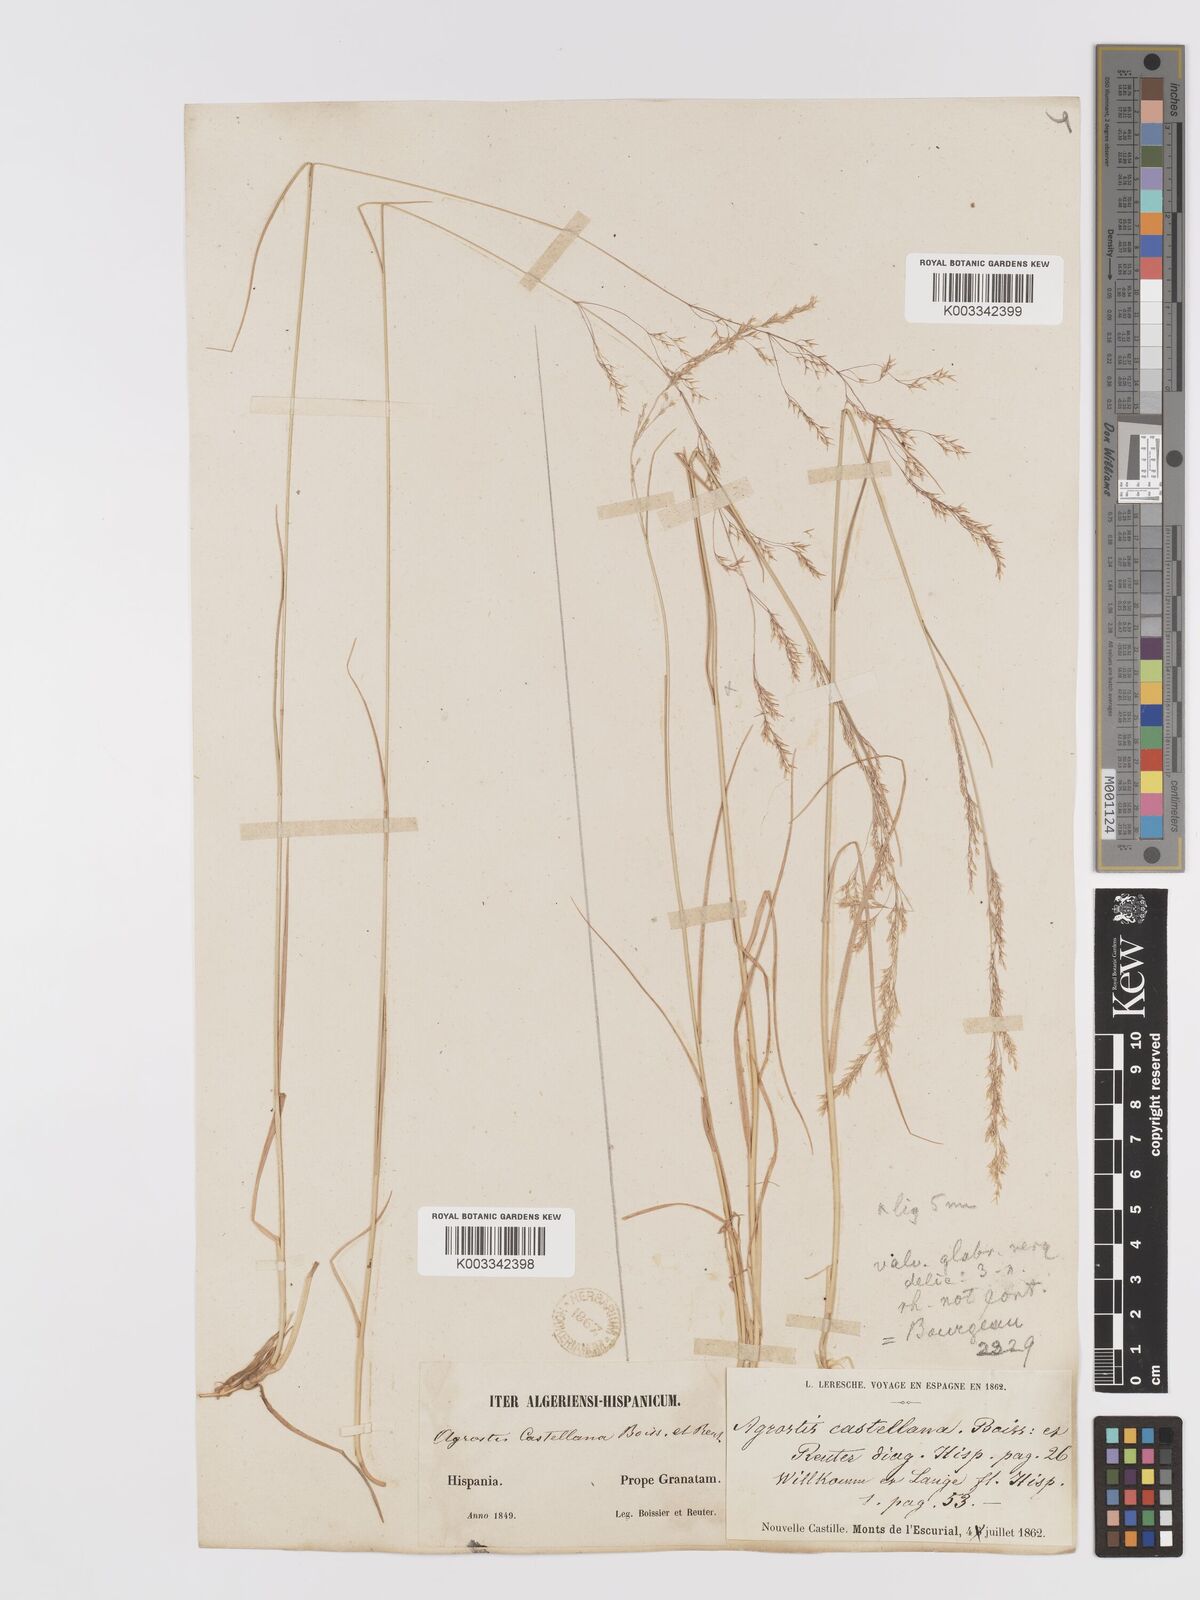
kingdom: Plantae
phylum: Tracheophyta
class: Liliopsida
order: Poales
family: Poaceae
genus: Agrostis
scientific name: Agrostis castellana
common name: Highland bent
